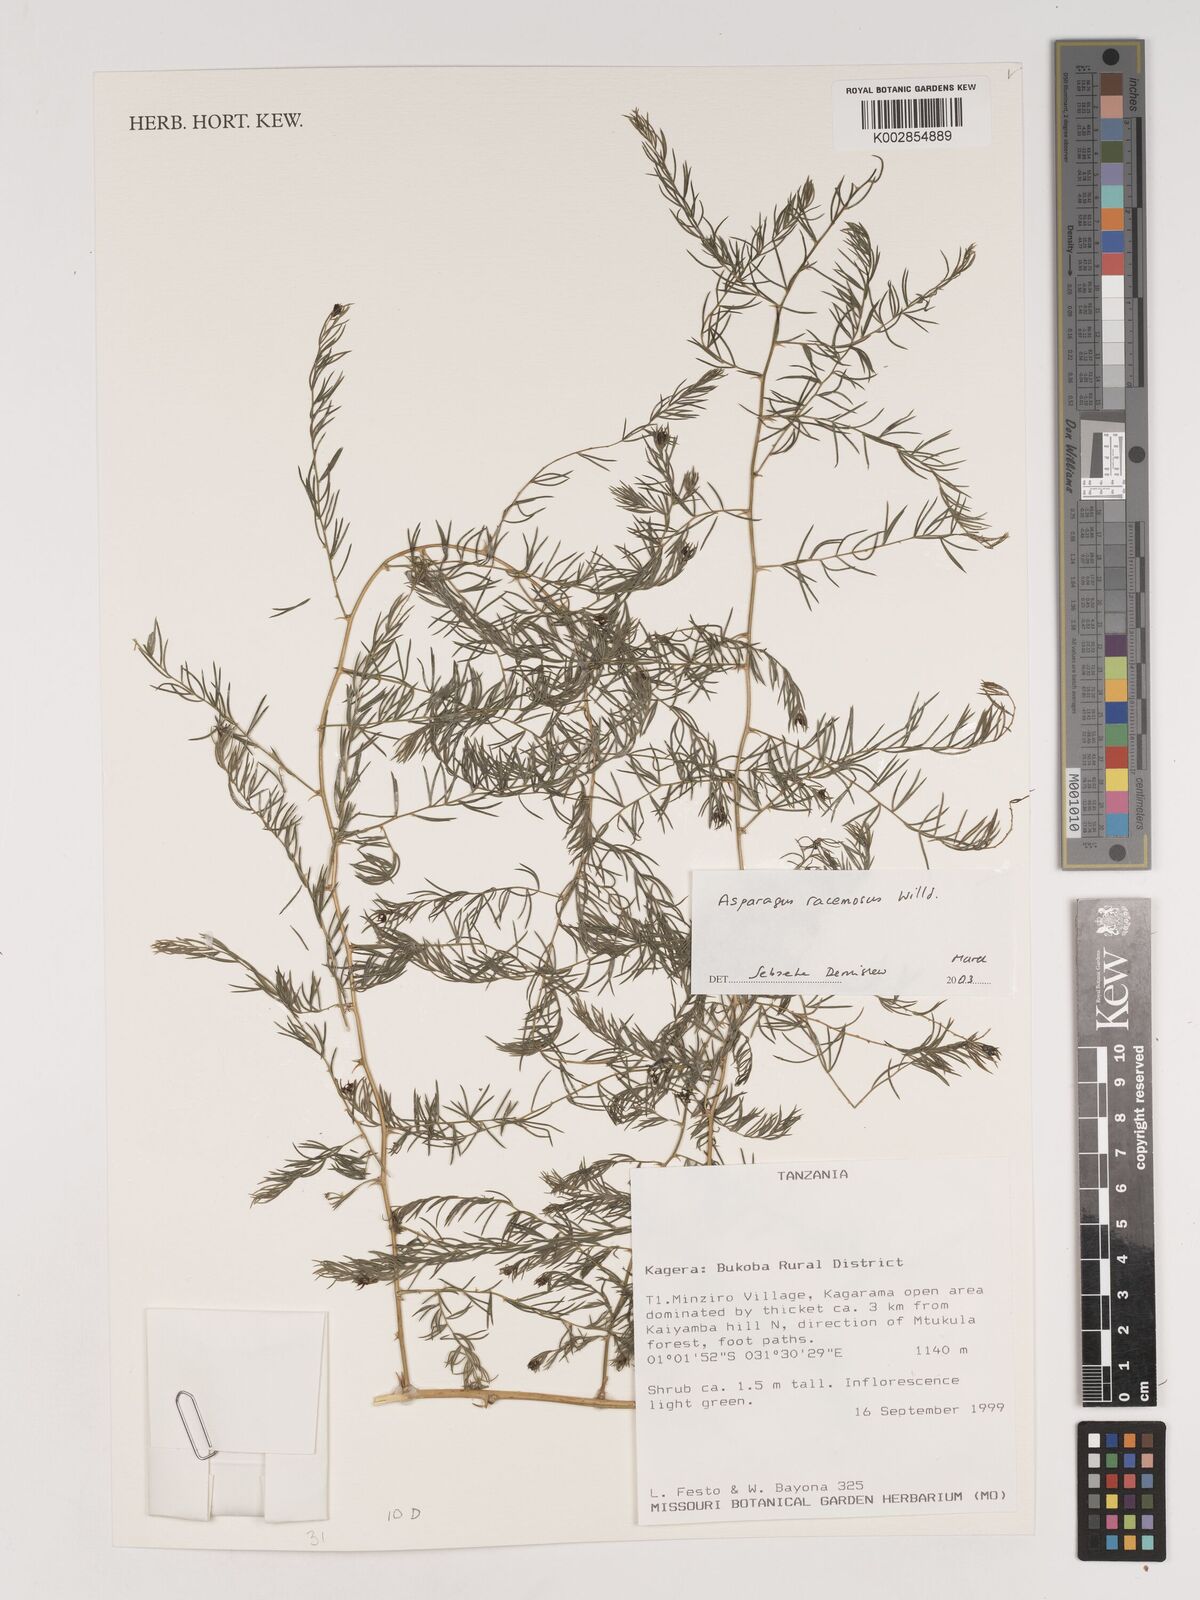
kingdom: Plantae
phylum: Tracheophyta
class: Liliopsida
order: Asparagales
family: Asparagaceae
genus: Asparagus
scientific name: Asparagus racemosus
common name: Asparagus-fern
